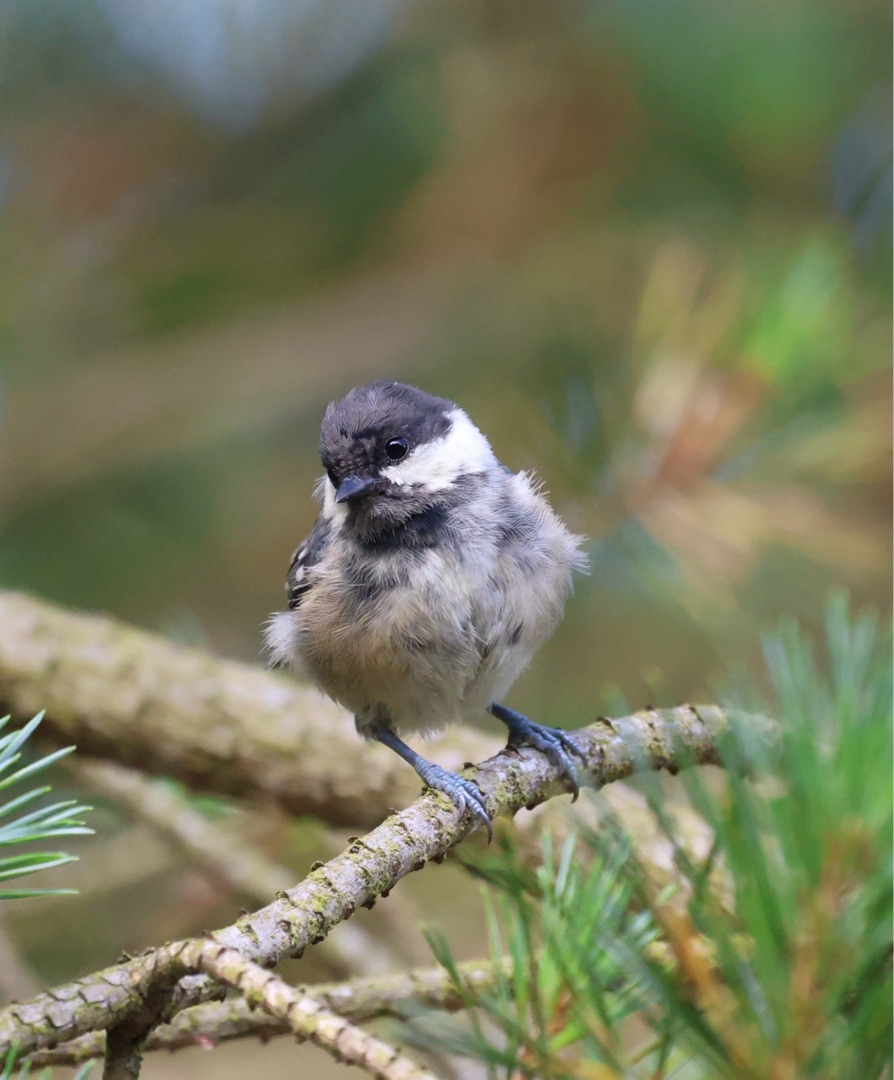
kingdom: Animalia
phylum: Chordata
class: Aves
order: Passeriformes
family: Paridae
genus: Periparus
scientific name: Periparus ater
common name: Sortmejse
